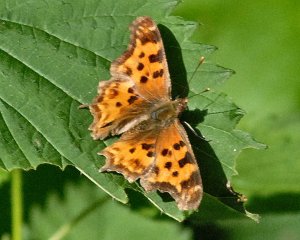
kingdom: Animalia
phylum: Arthropoda
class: Insecta
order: Lepidoptera
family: Nymphalidae
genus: Polygonia
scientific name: Polygonia satyrus
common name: Satyr Comma
